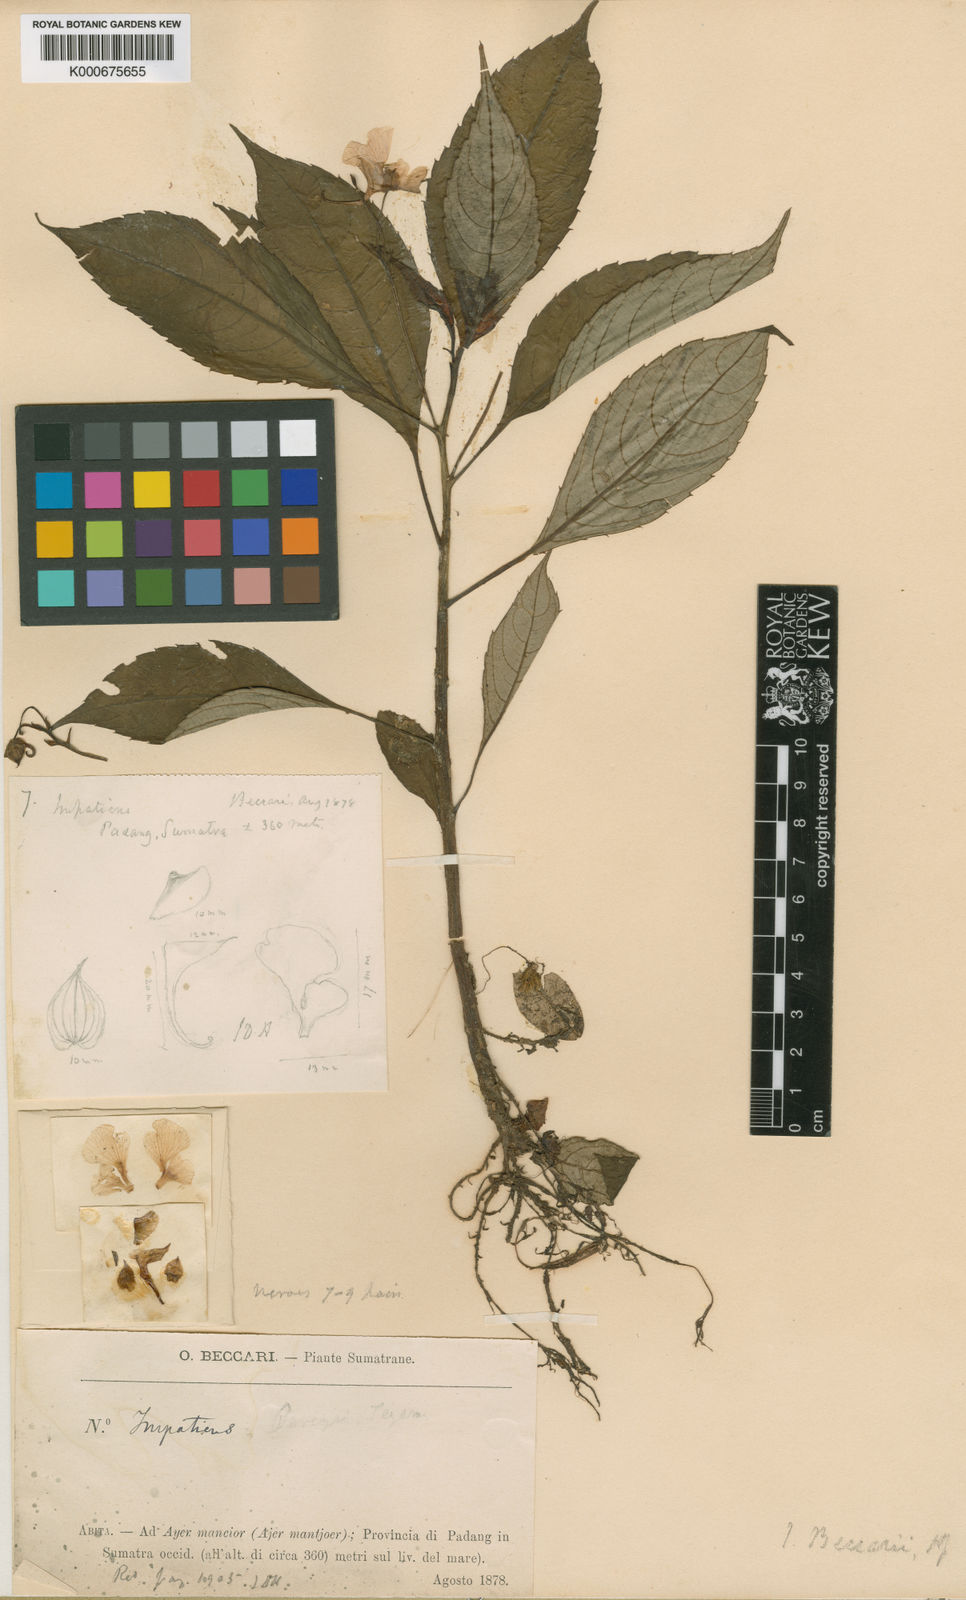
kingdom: Plantae
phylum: Tracheophyta
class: Magnoliopsida
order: Ericales
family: Balsaminaceae
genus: Impatiens
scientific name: Impatiens beccarii
